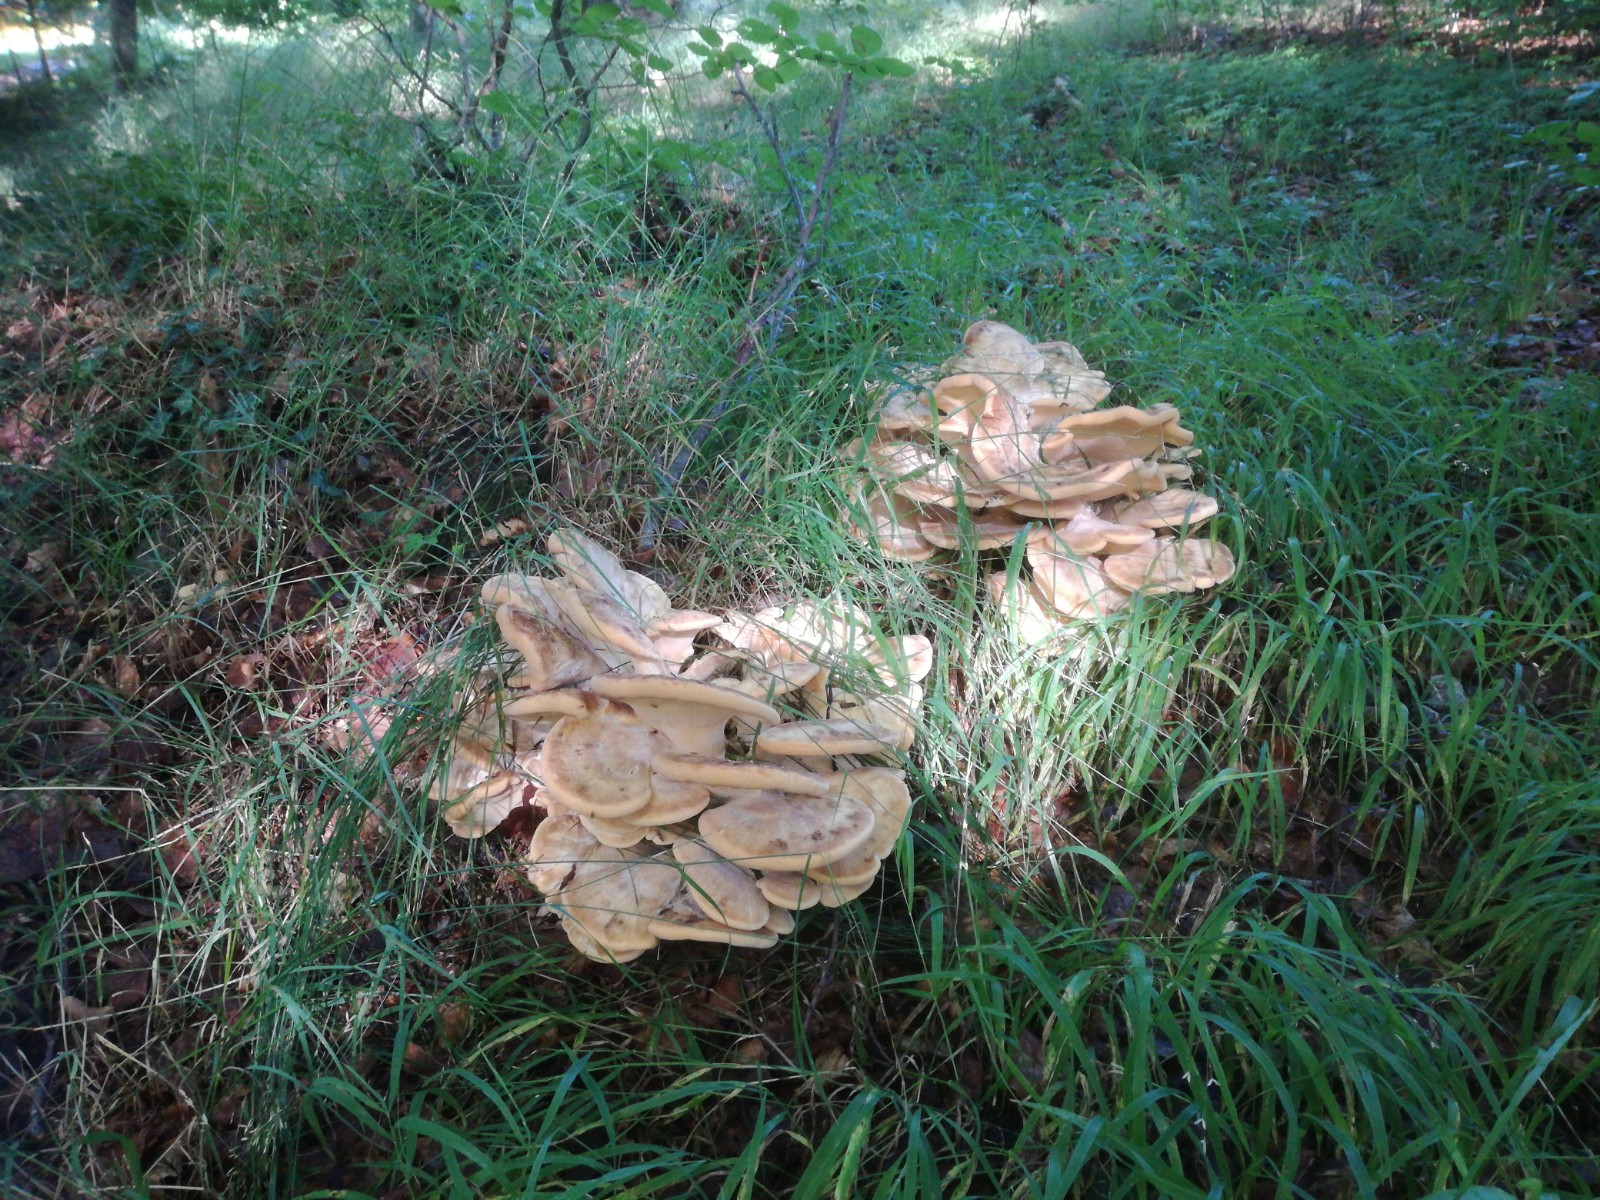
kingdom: Fungi
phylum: Basidiomycota
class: Agaricomycetes
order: Polyporales
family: Meripilaceae
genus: Meripilus
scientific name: Meripilus giganteus
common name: kæmpeporesvamp
